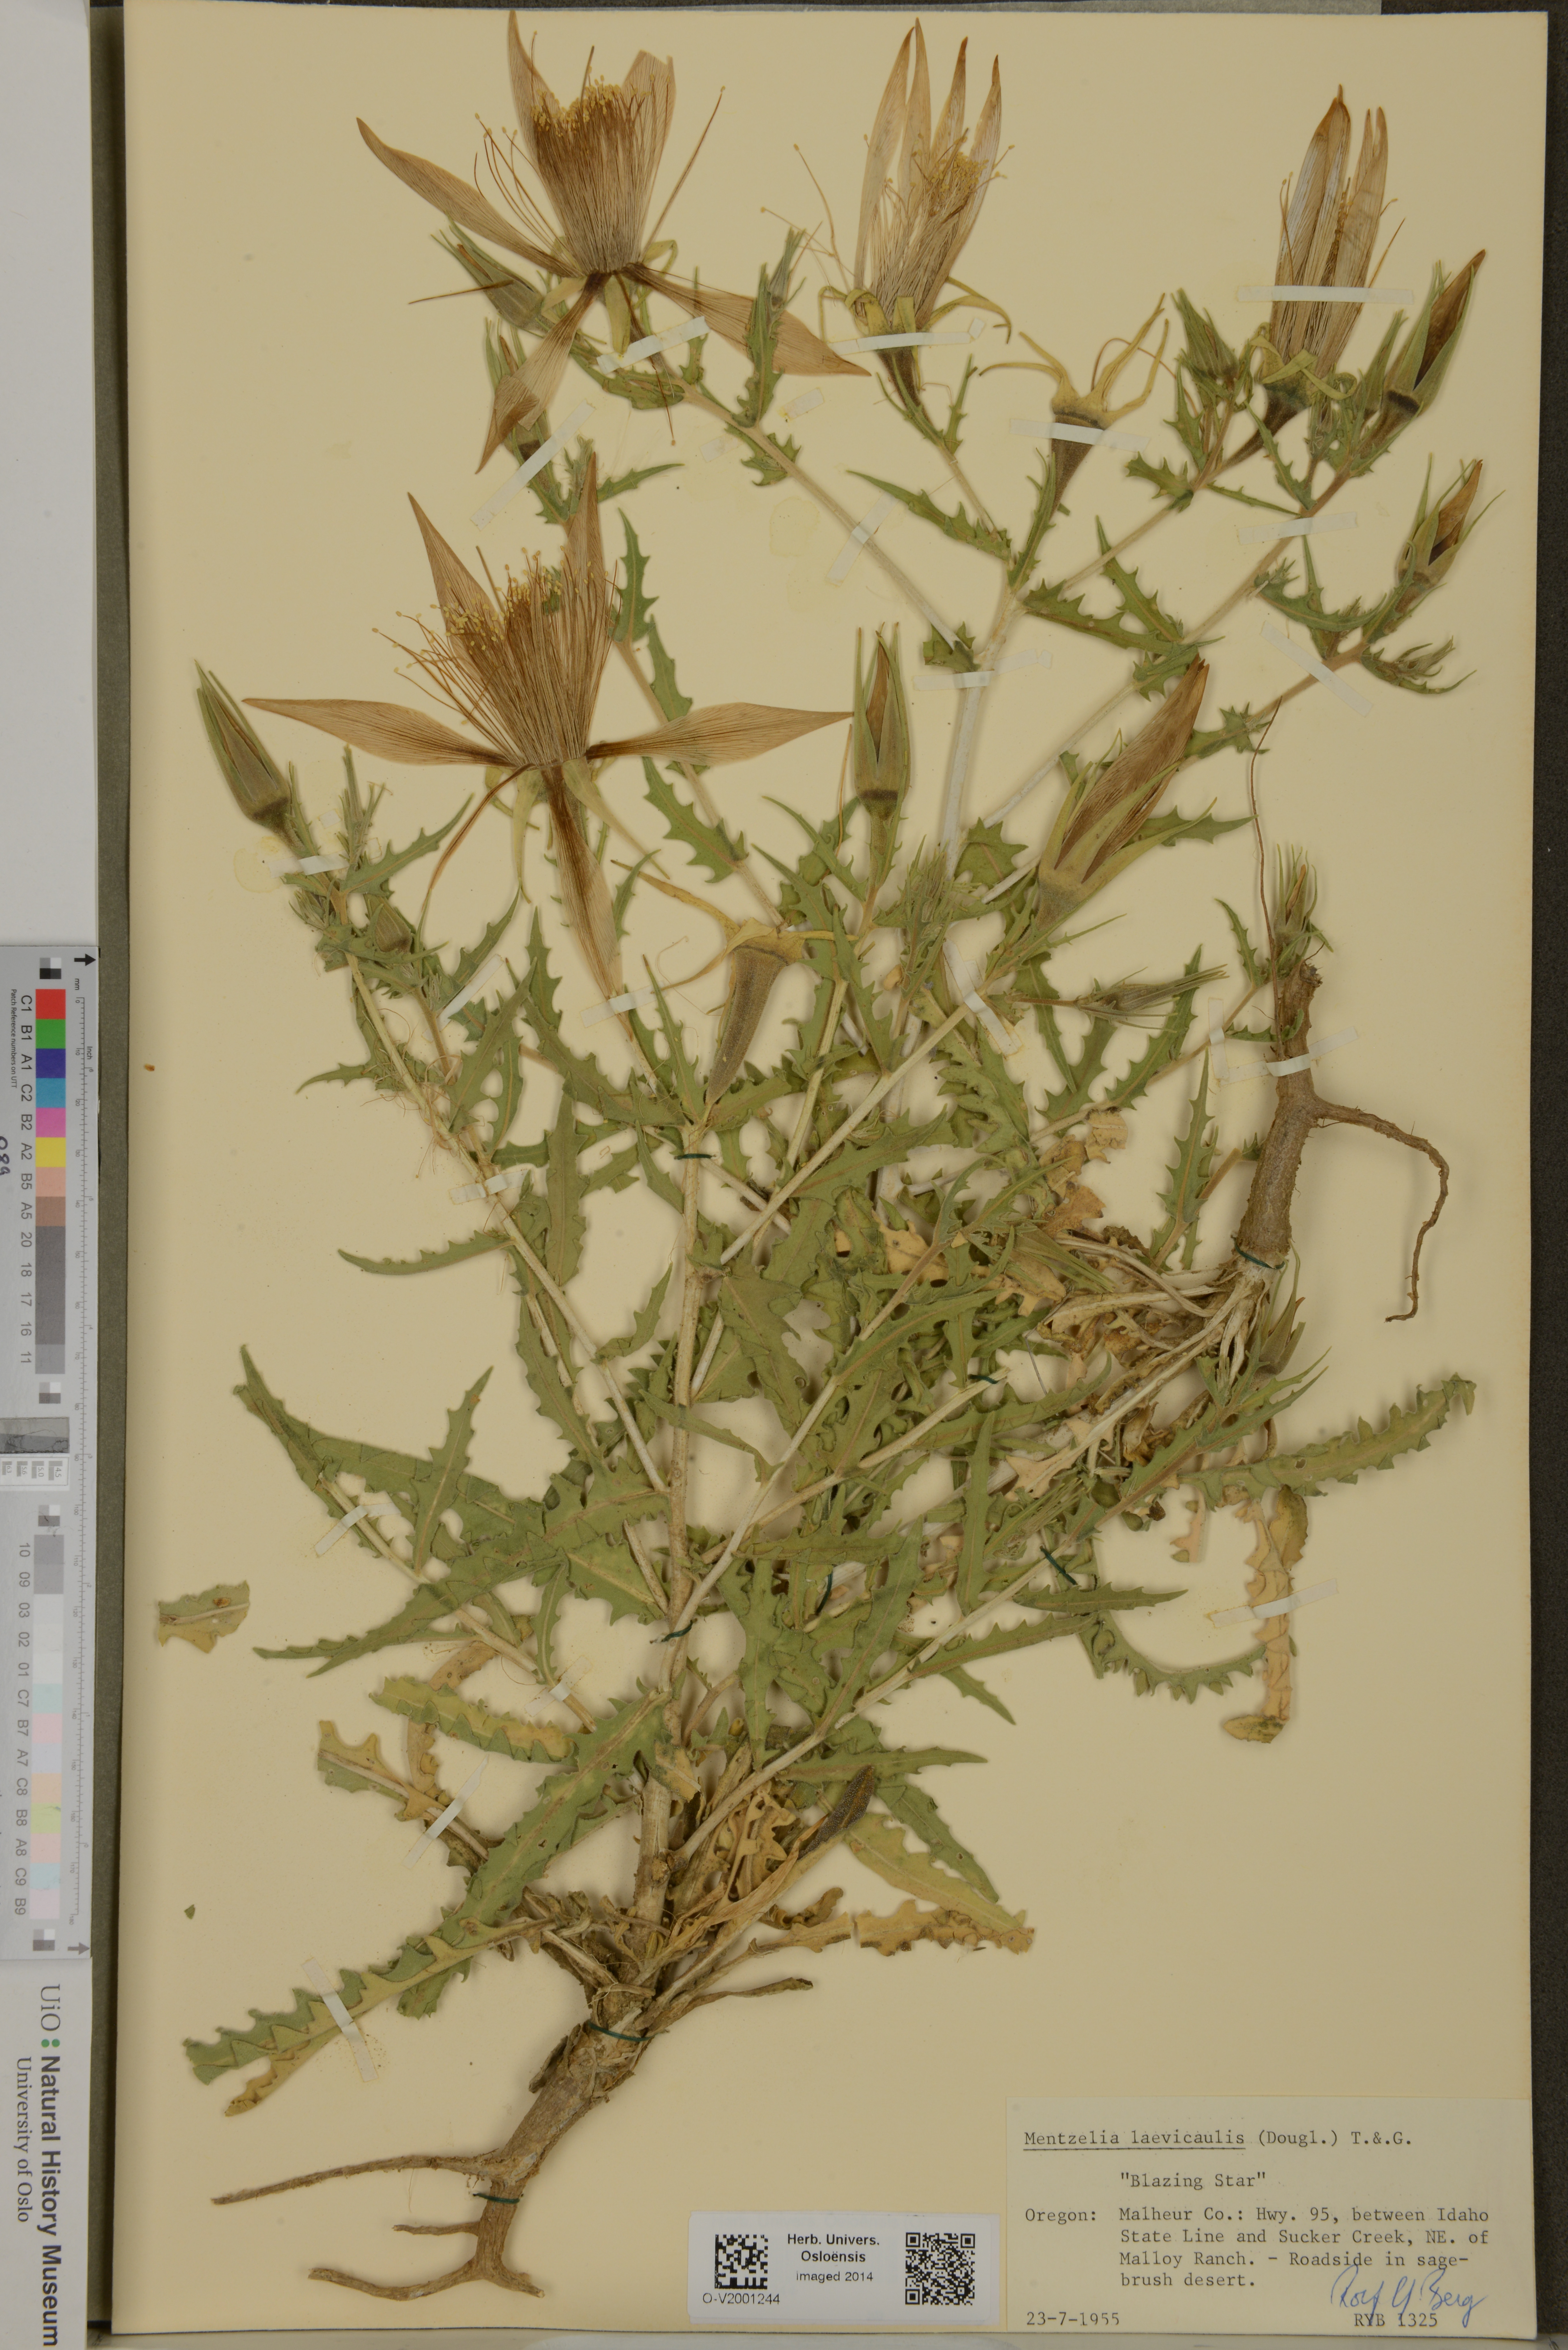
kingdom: Plantae
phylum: Tracheophyta
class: Magnoliopsida
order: Cornales
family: Loasaceae
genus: Mentzelia
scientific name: Mentzelia laevicaulis
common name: Smooth-stem blazingstar
